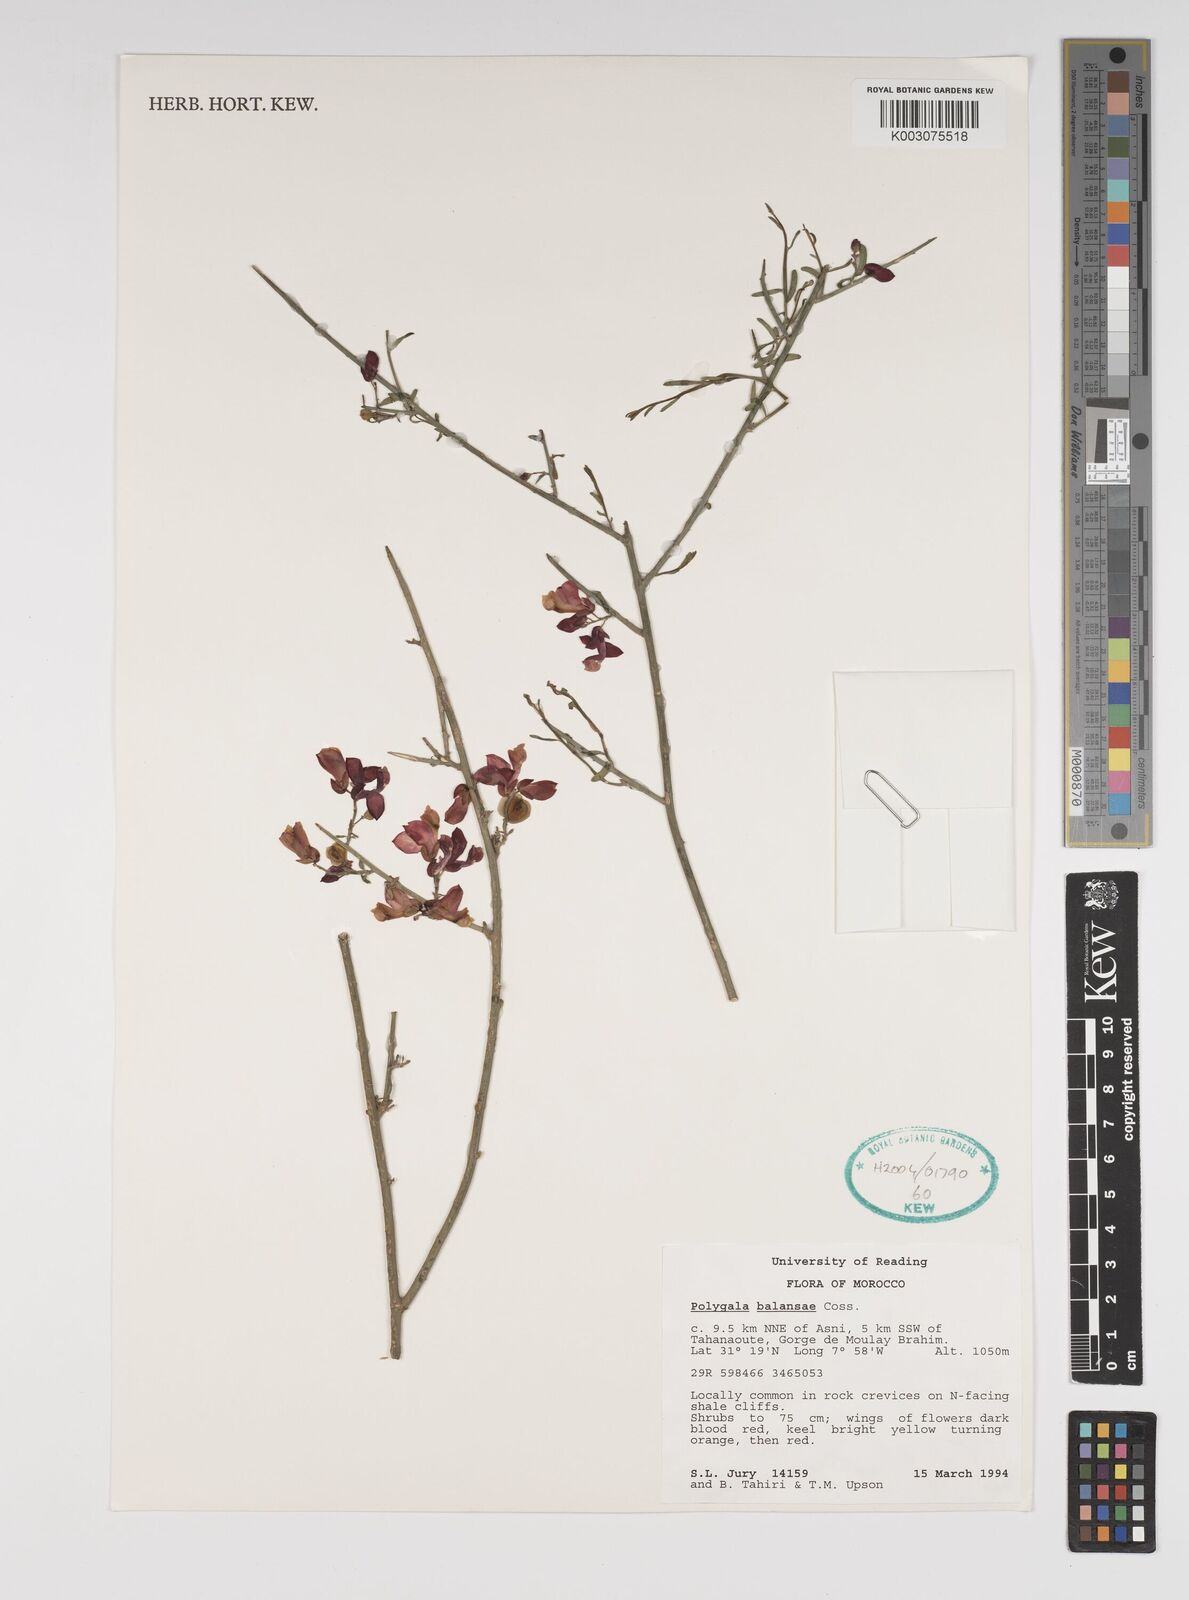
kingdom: Plantae
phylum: Tracheophyta
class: Magnoliopsida
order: Fabales
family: Polygalaceae
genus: Polygaloides
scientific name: Polygaloides balansae
